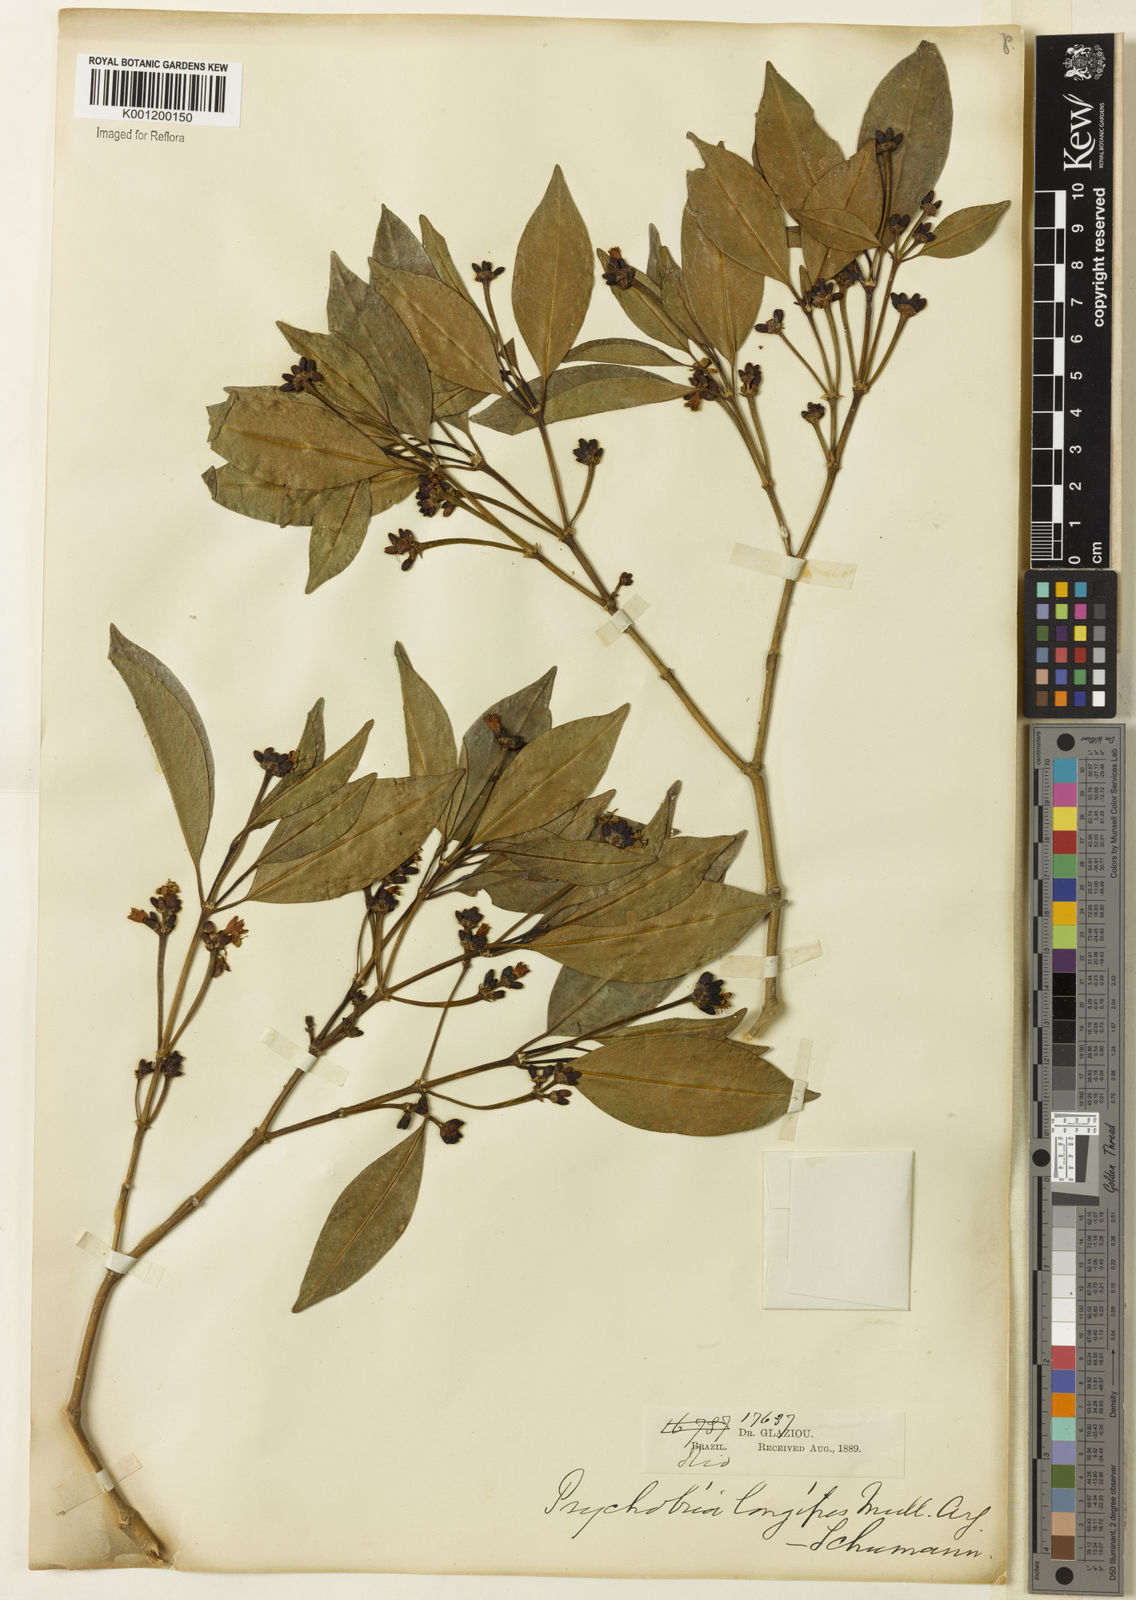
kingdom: Plantae
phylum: Tracheophyta
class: Magnoliopsida
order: Gentianales
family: Rubiaceae
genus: Rudgea
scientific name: Rudgea sessilis
